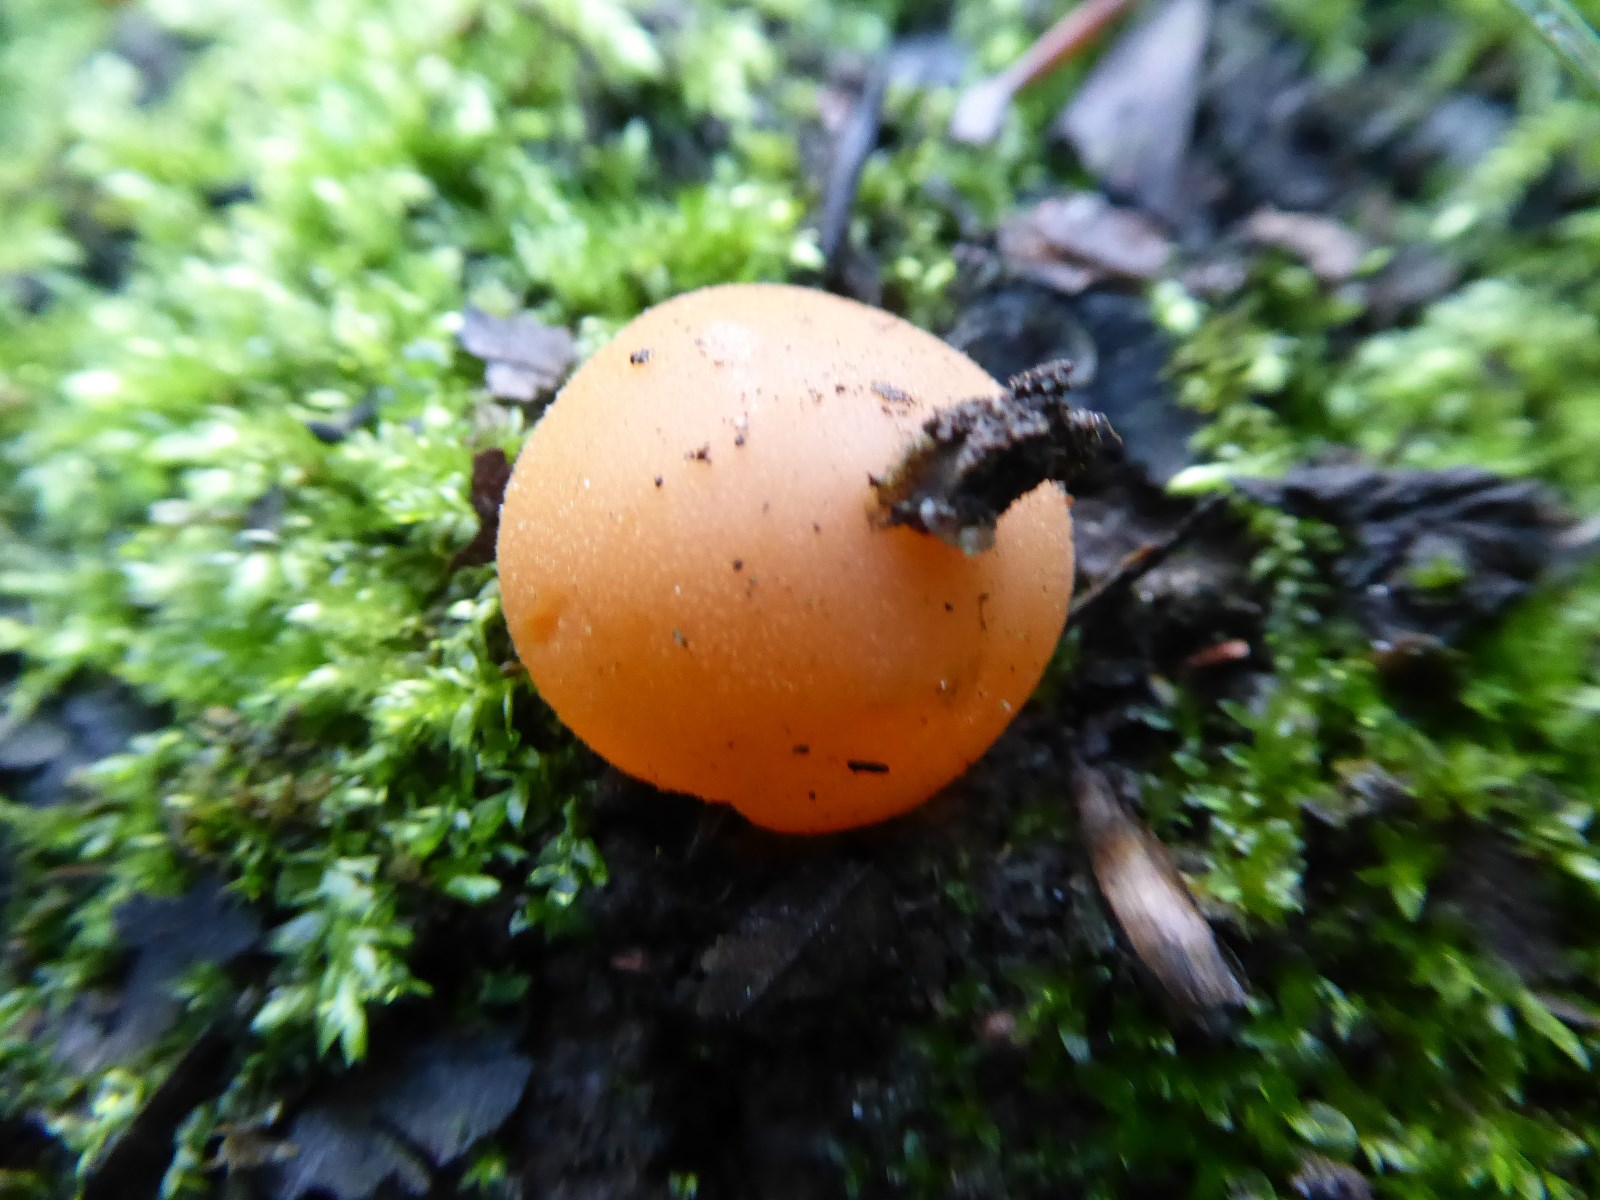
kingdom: Fungi
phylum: Ascomycota
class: Pezizomycetes
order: Pezizales
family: Pyronemataceae
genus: Aleuria
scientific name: Aleuria aurantia
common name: almindelig orangebæger
